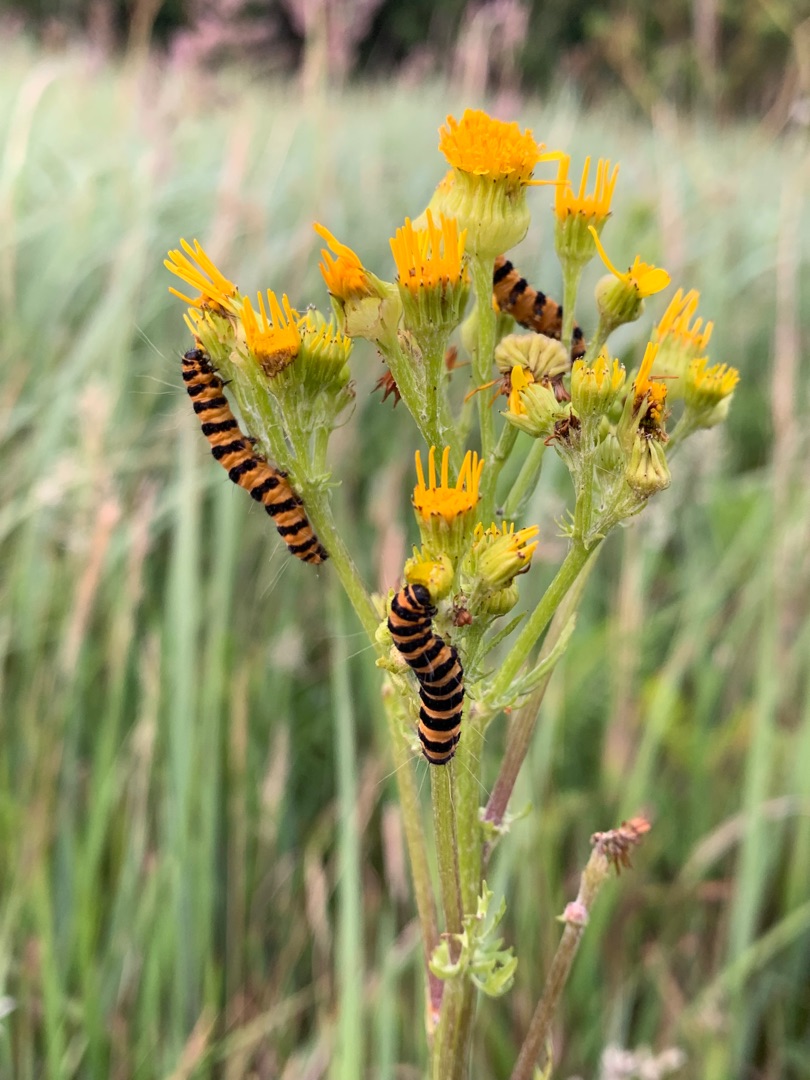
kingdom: Animalia
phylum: Arthropoda
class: Insecta
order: Lepidoptera
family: Erebidae
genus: Tyria
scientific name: Tyria jacobaeae
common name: Blodplet
